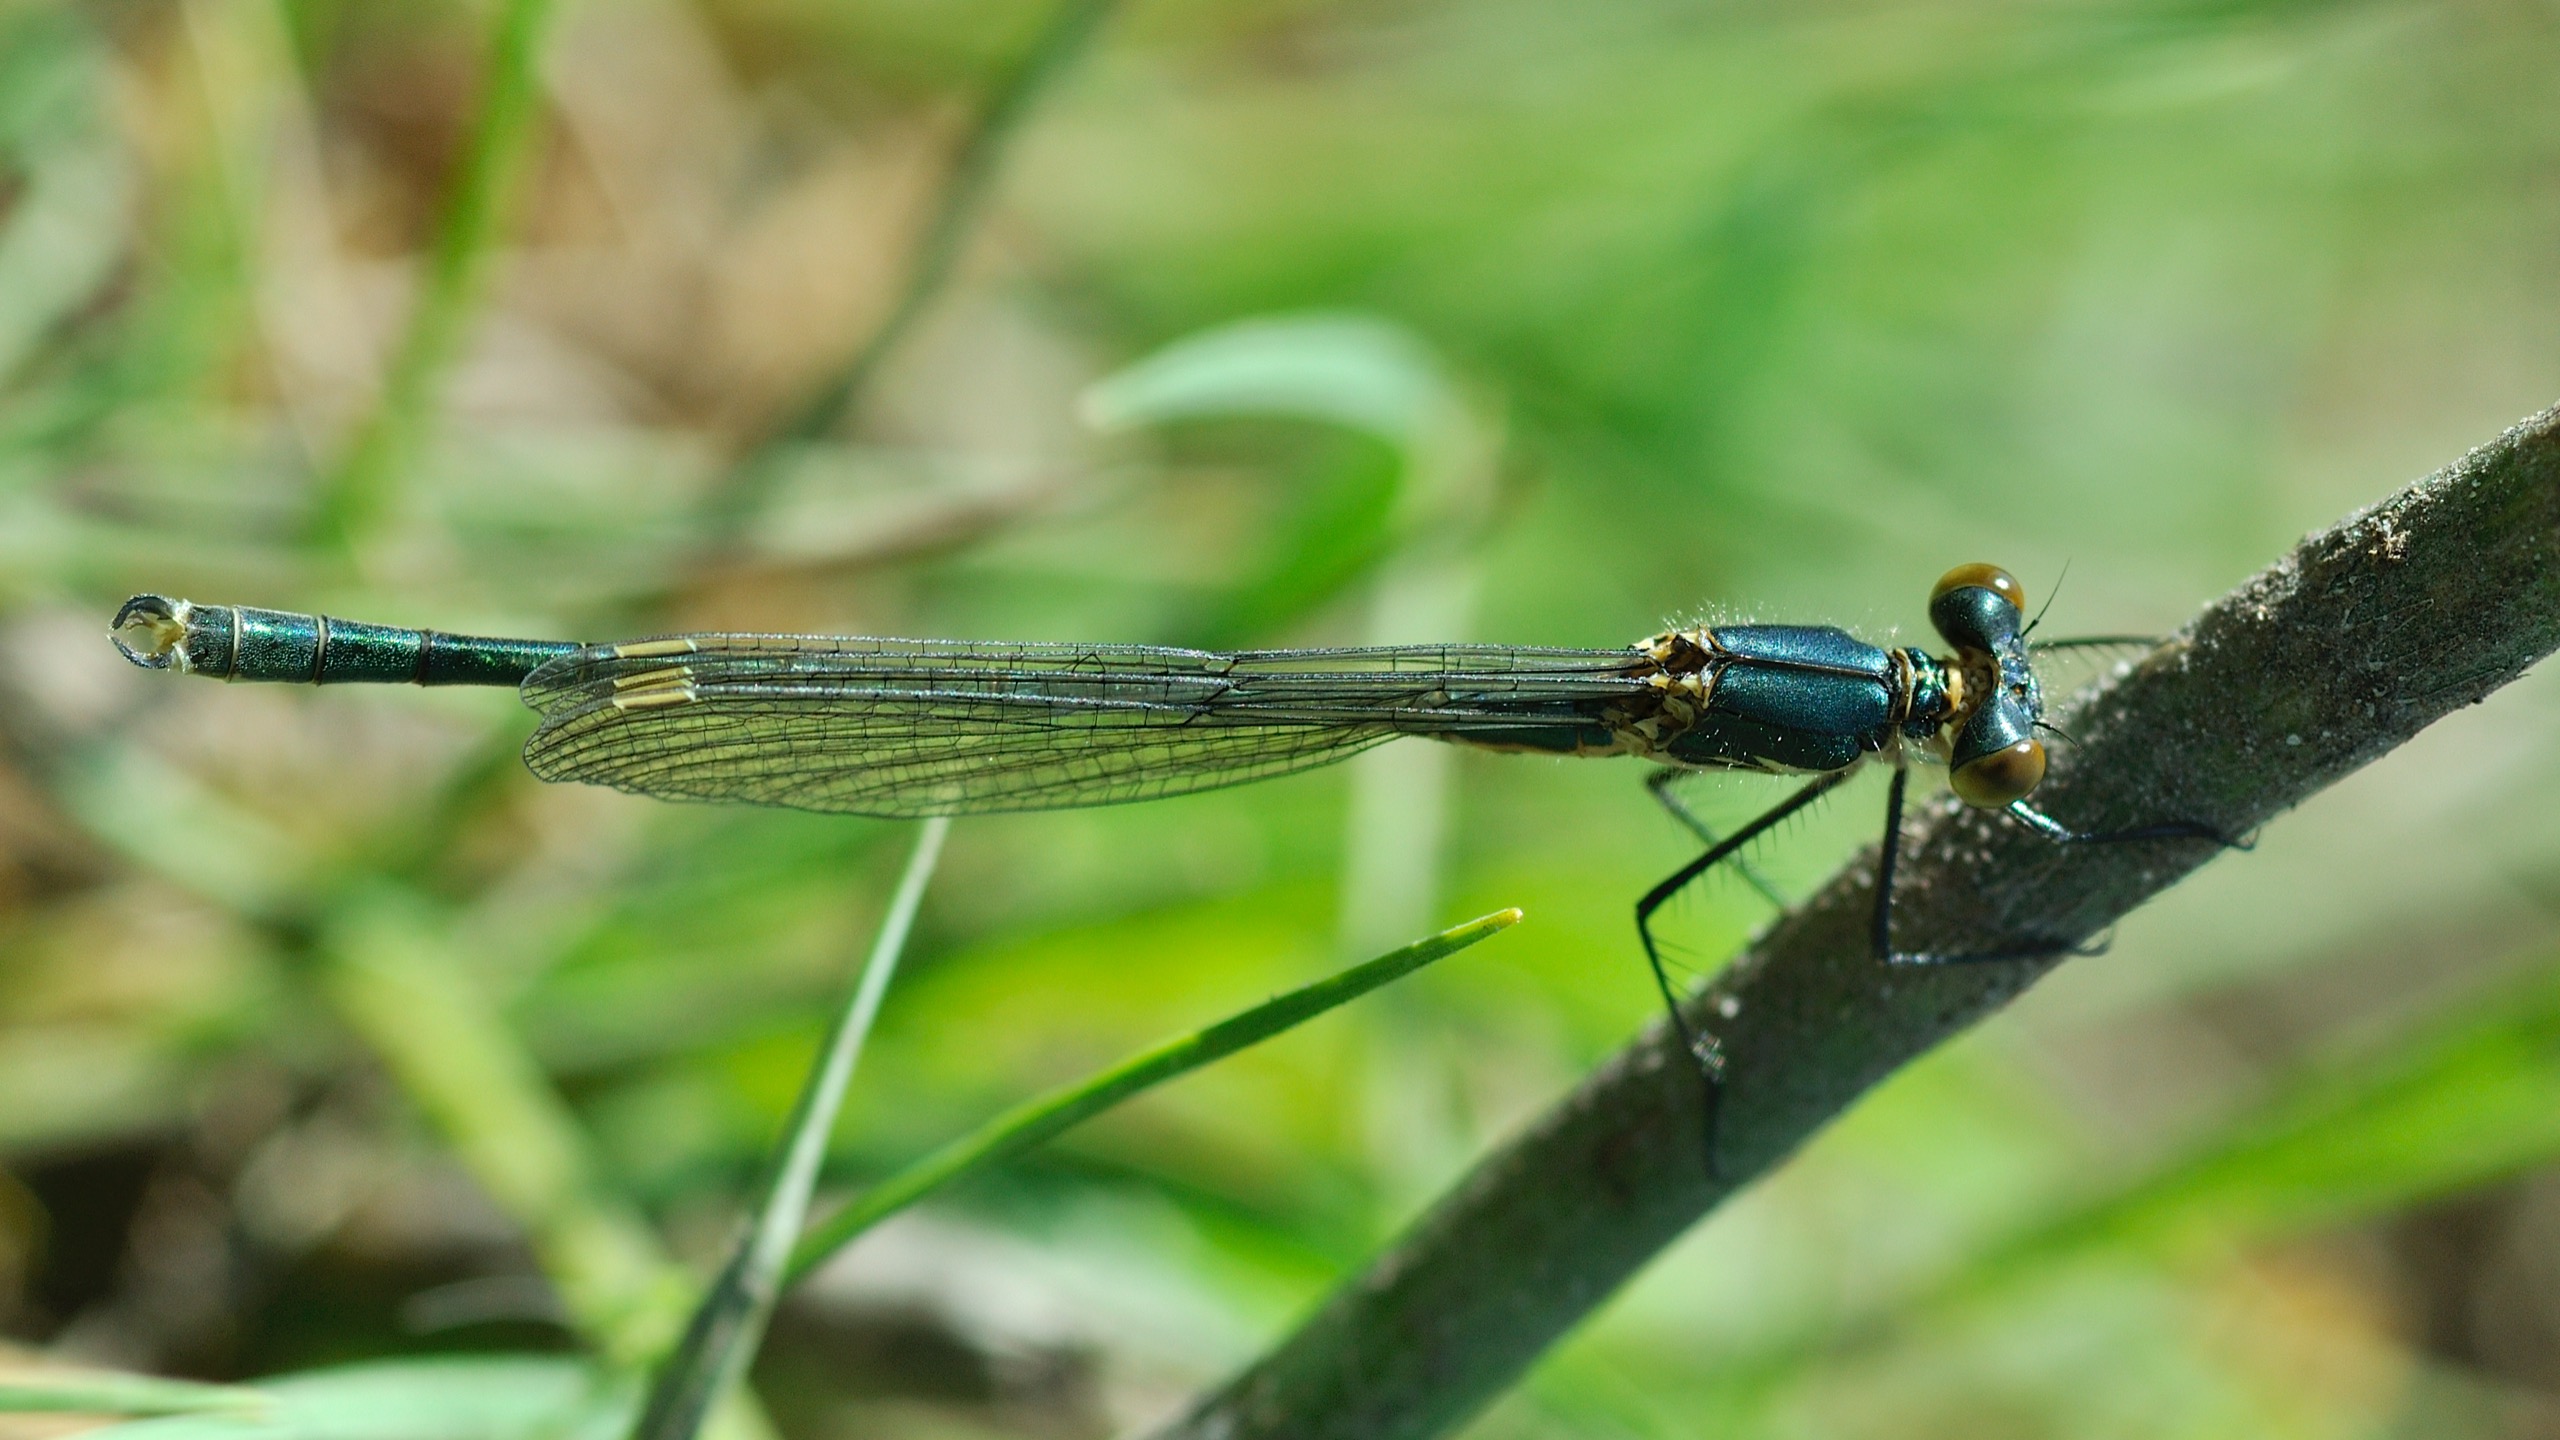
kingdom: Animalia
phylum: Arthropoda
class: Insecta
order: Odonata
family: Lestidae
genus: Lestes
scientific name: Lestes dryas
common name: Sortmærket kobbervandnymfe
